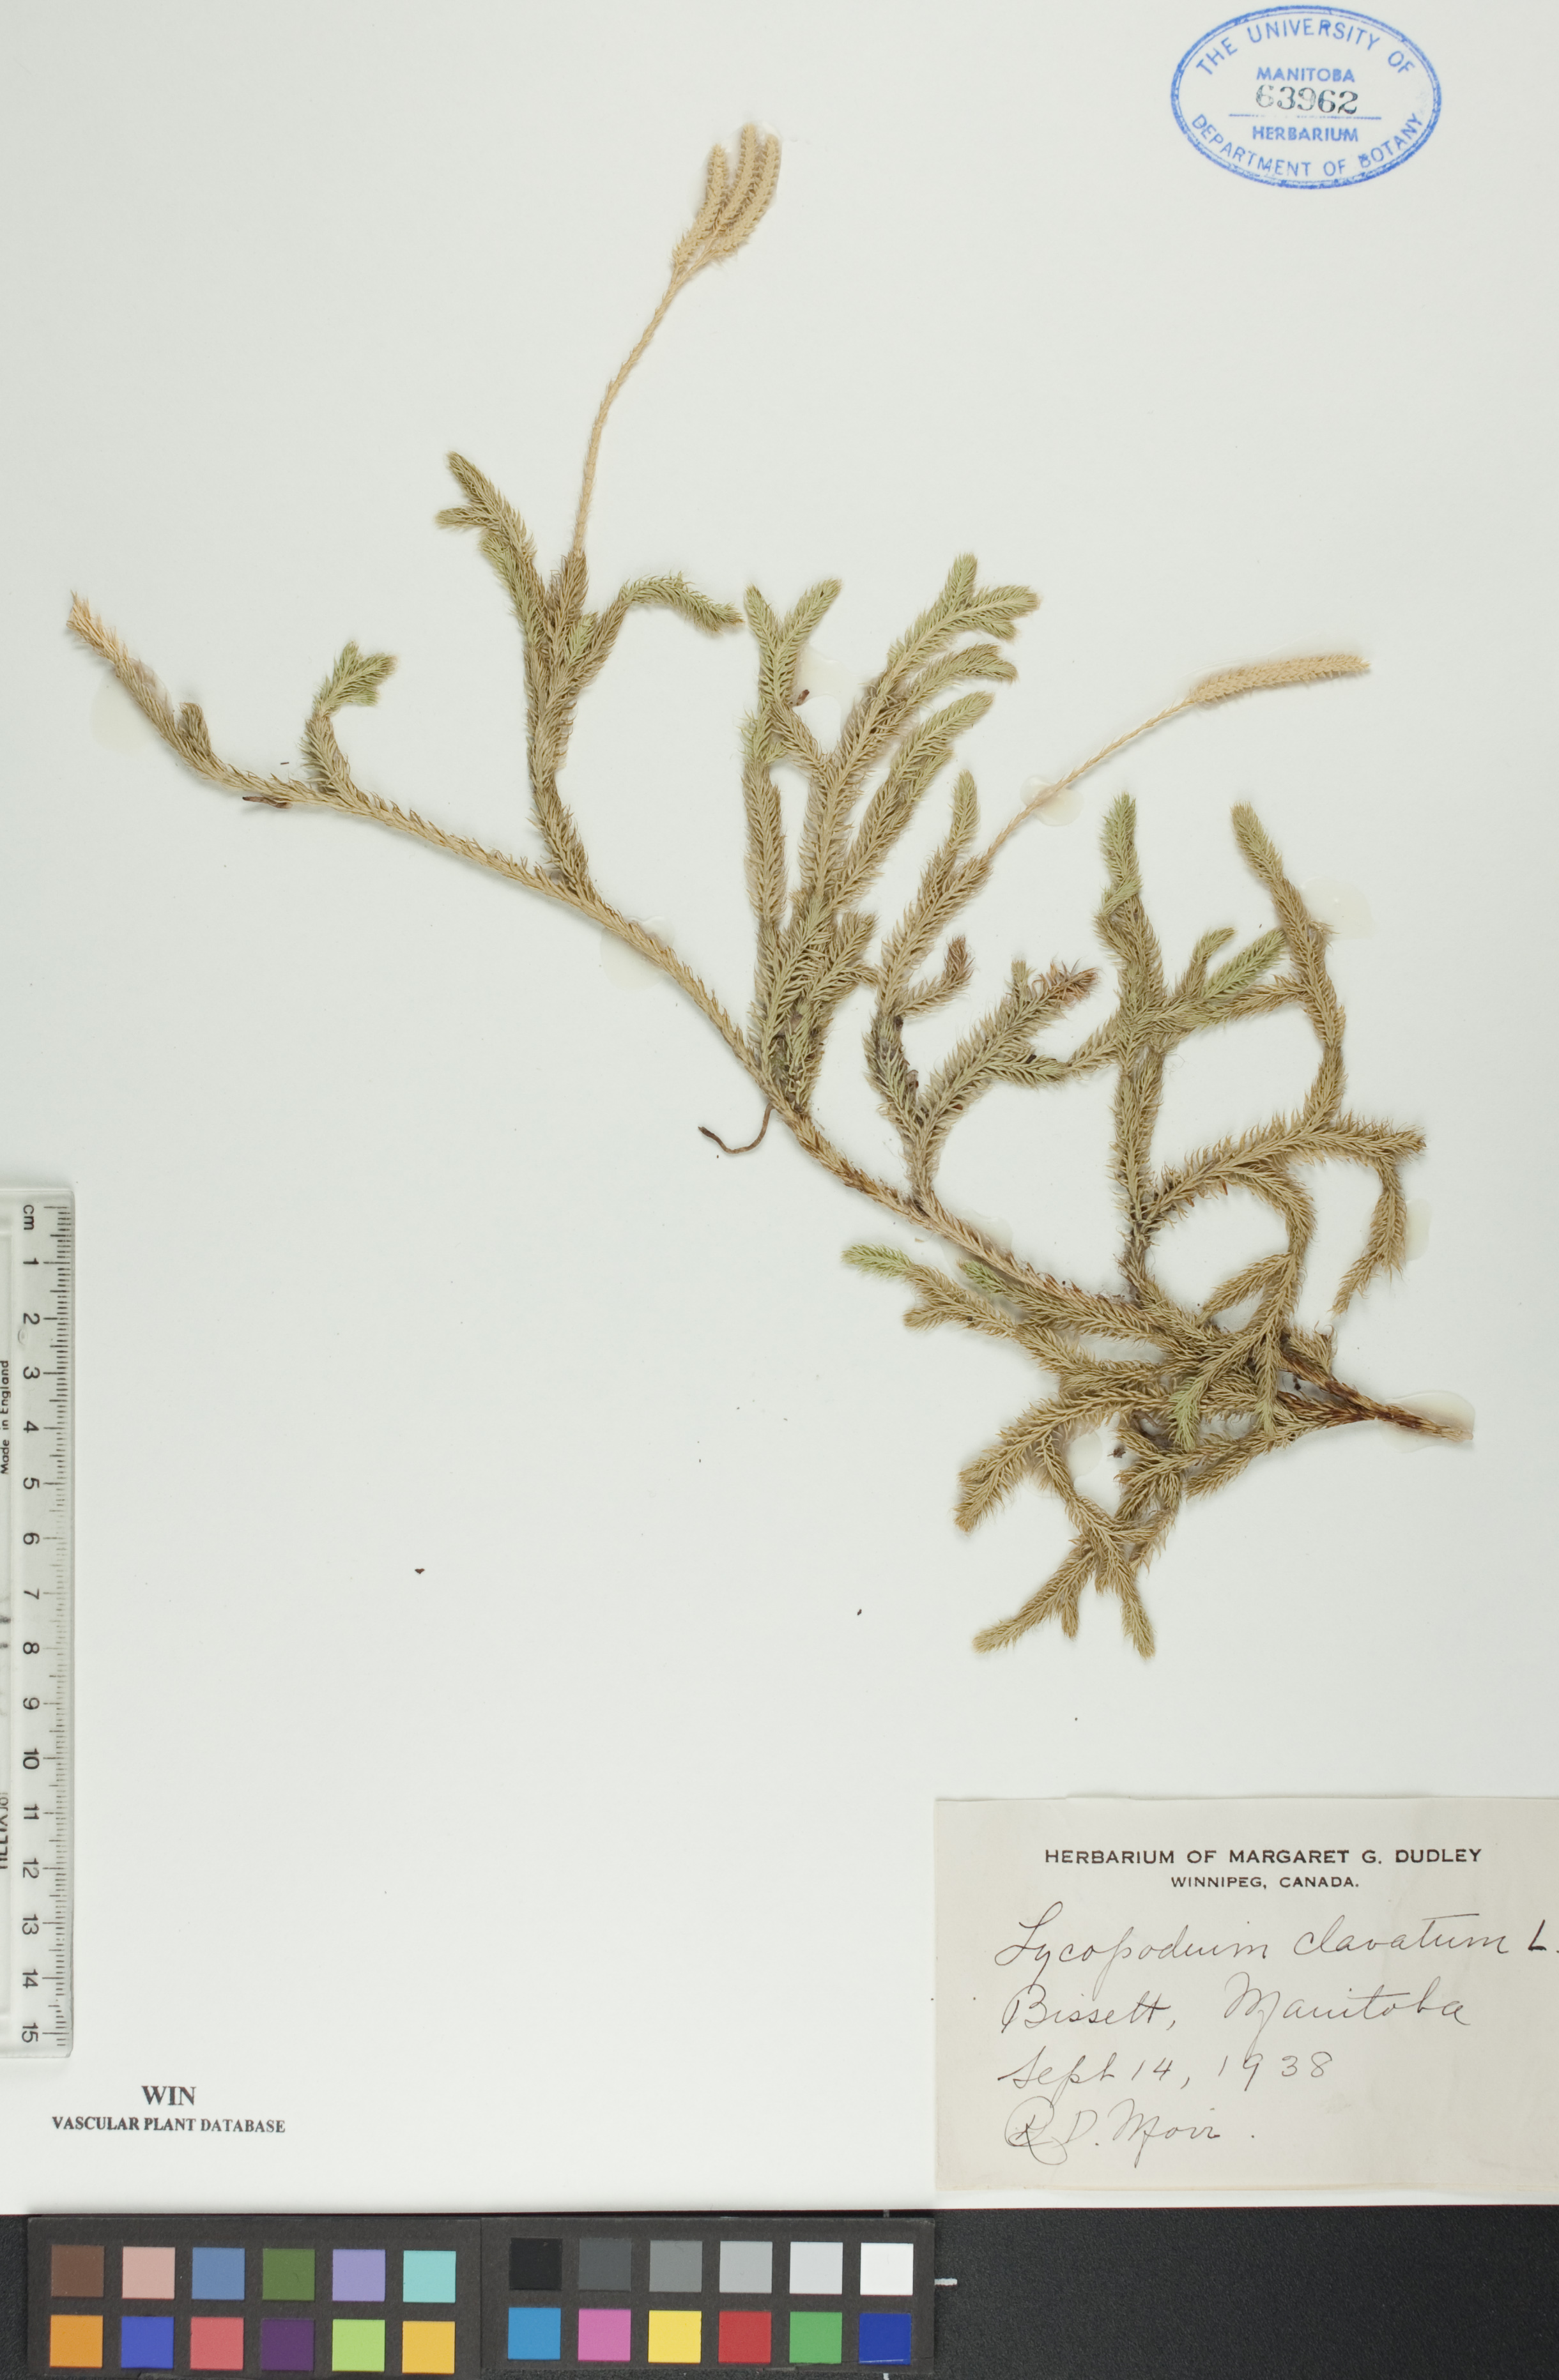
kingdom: Plantae
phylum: Tracheophyta
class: Lycopodiopsida
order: Lycopodiales
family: Lycopodiaceae
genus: Lycopodium
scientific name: Lycopodium clavatum
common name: Stag's-horn clubmoss
